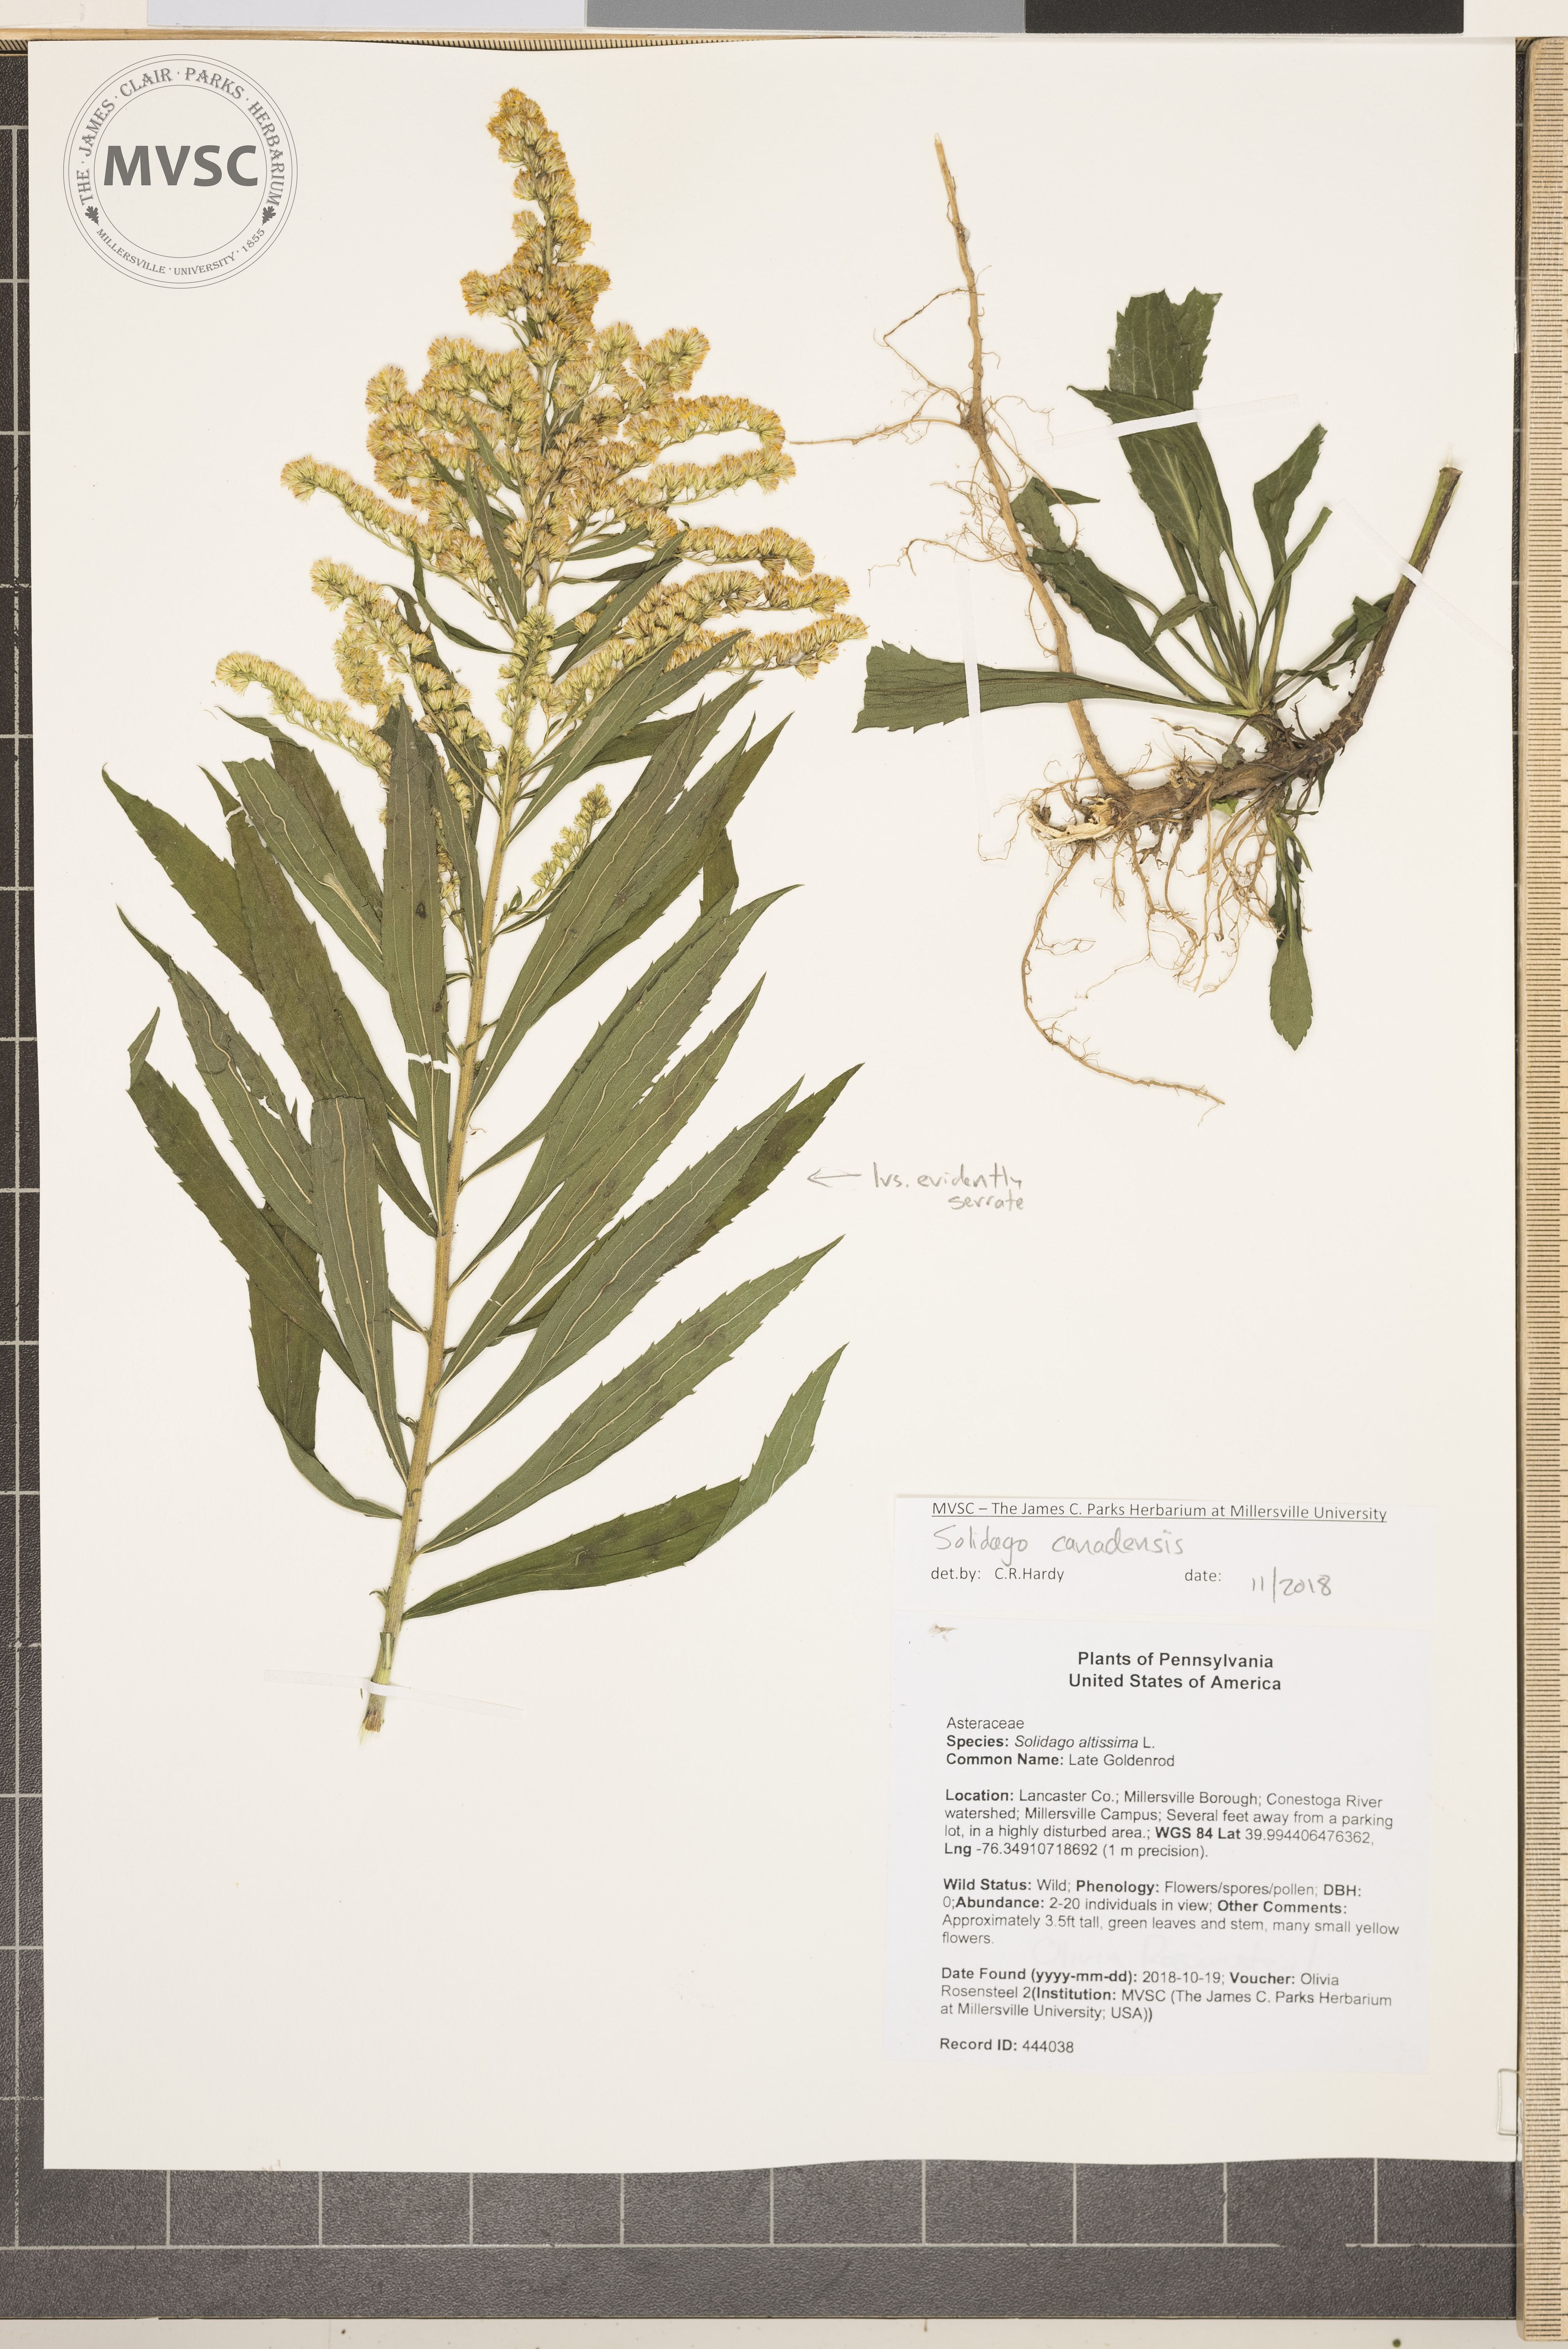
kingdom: Plantae
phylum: Tracheophyta
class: Magnoliopsida
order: Asterales
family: Asteraceae
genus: Solidago
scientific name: Solidago altissima
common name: Goldenrod
